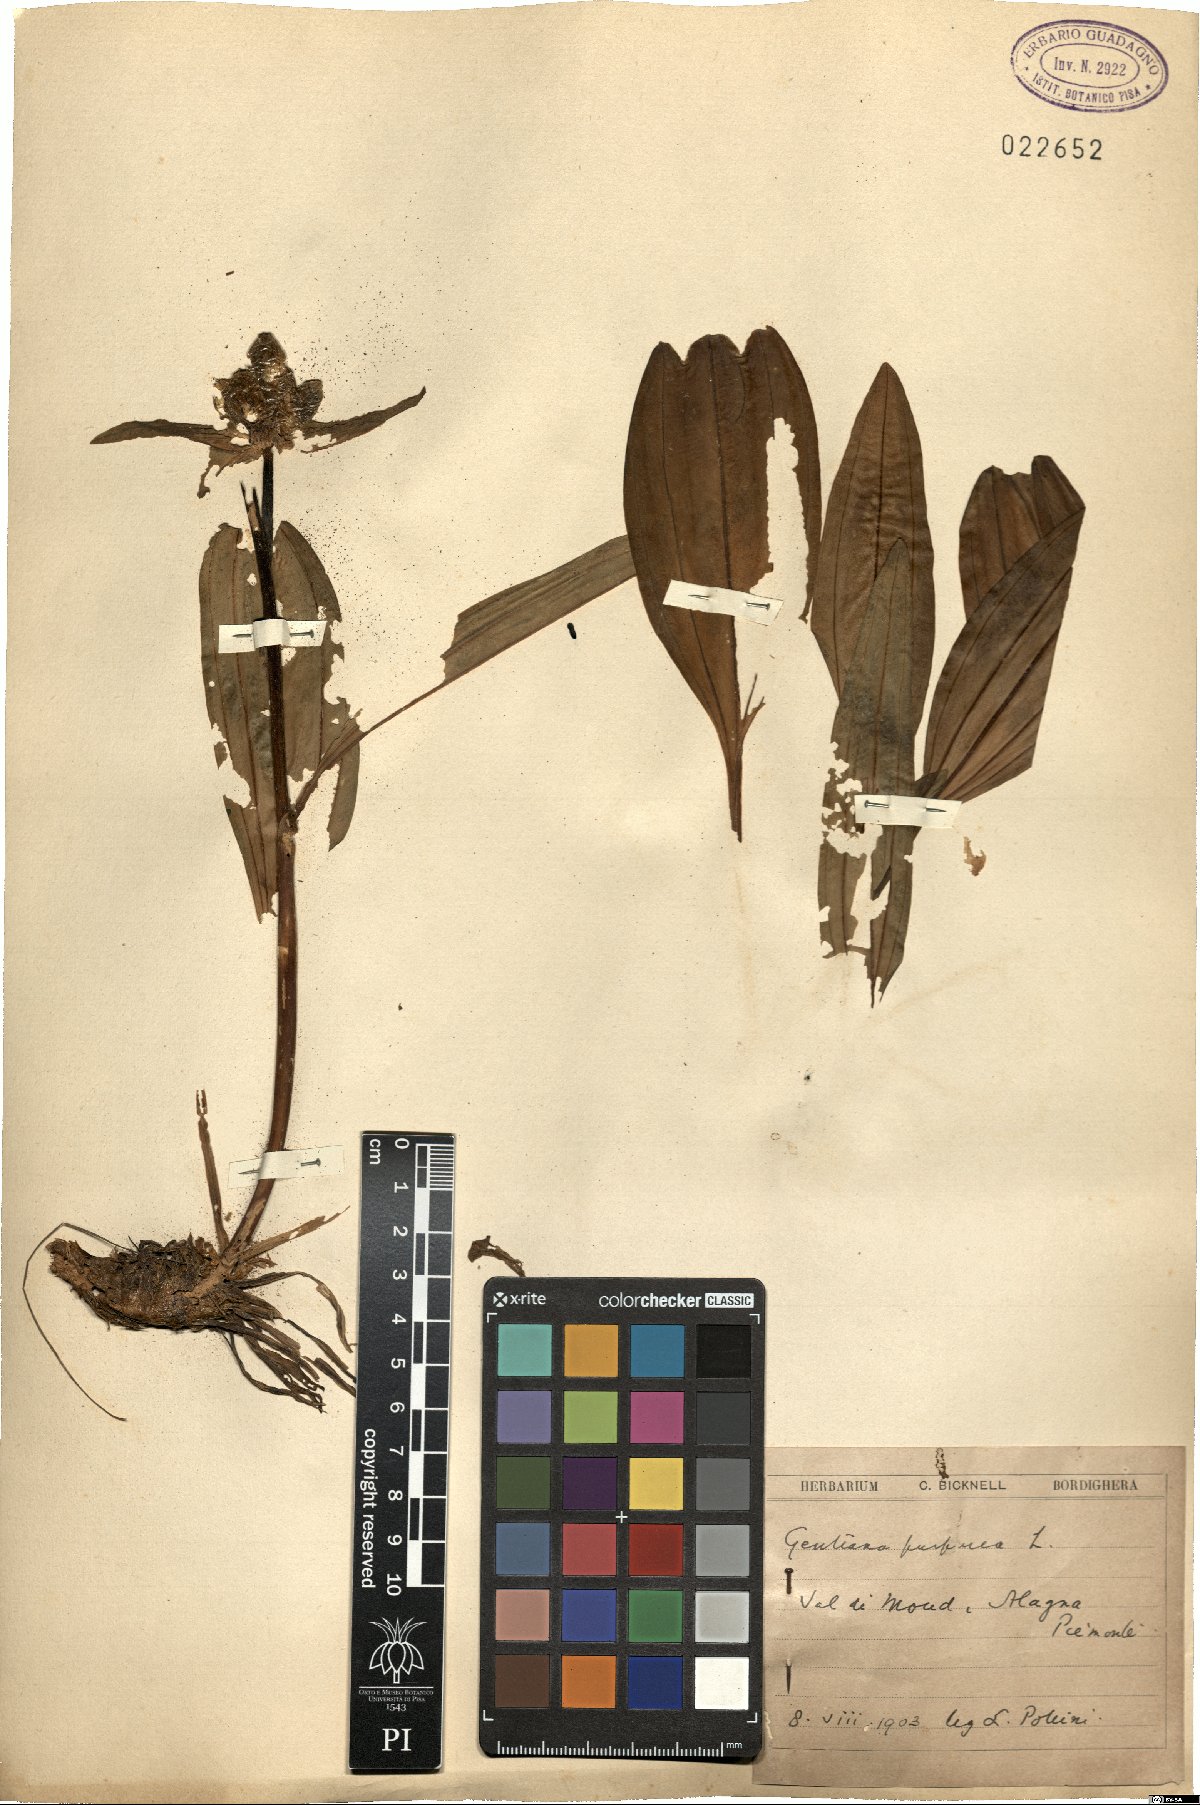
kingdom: Plantae
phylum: Tracheophyta
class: Magnoliopsida
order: Gentianales
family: Gentianaceae
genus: Gentiana
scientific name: Gentiana purpurea
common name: Purple gentian
